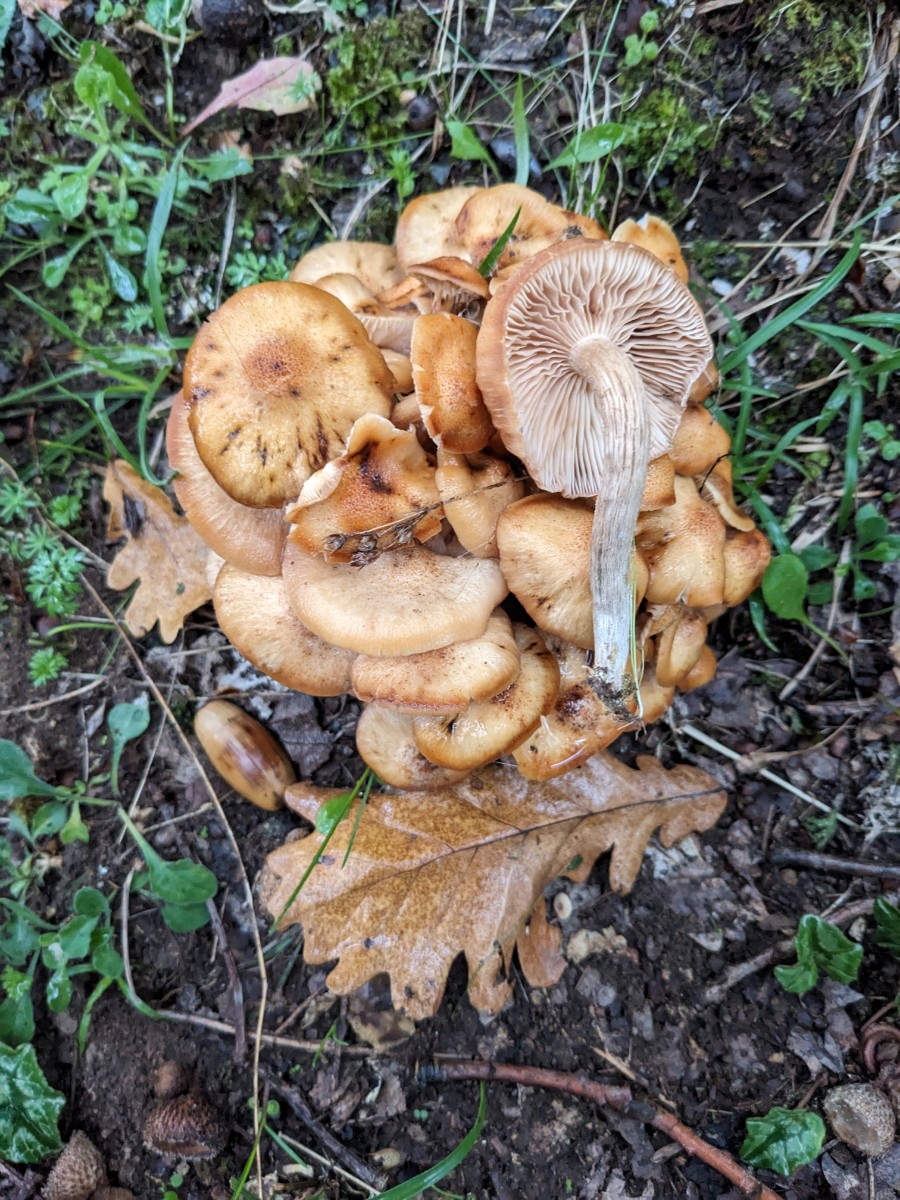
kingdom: Fungi
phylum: Basidiomycota
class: Agaricomycetes
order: Agaricales
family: Physalacriaceae
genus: Desarmillaria
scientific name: Desarmillaria tabescens
